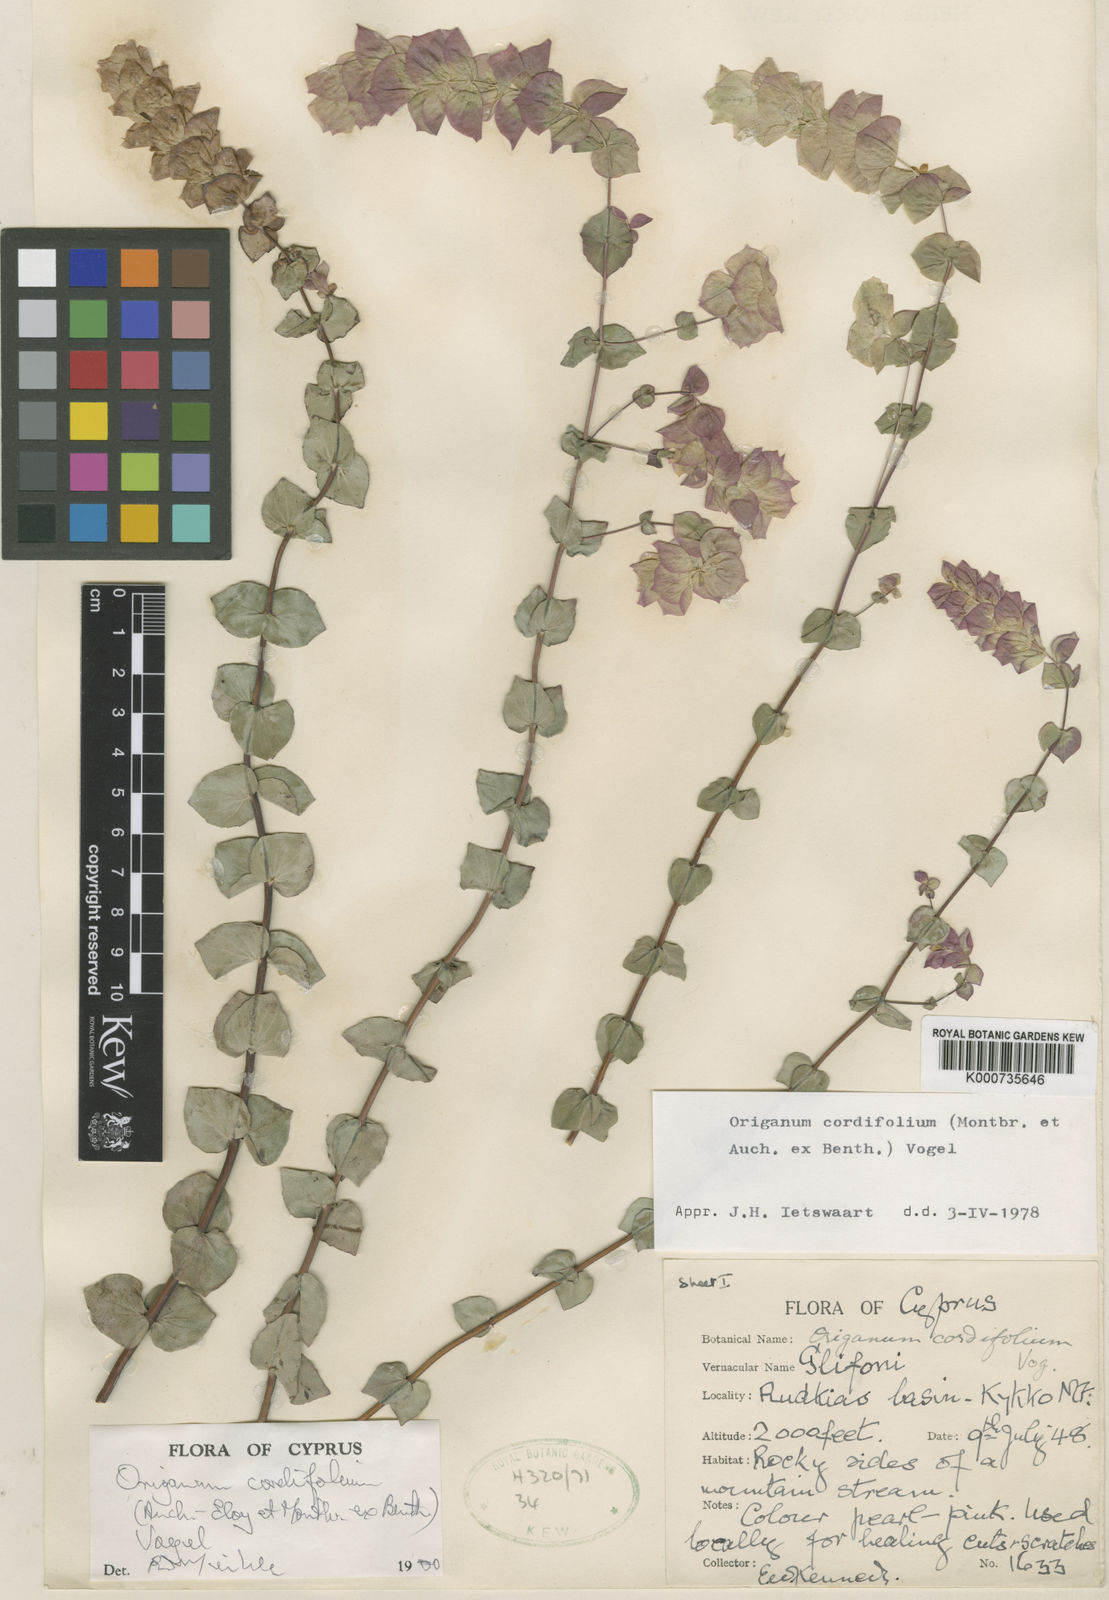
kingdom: Plantae
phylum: Tracheophyta
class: Magnoliopsida
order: Lamiales
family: Lamiaceae
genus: Origanum
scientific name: Origanum cordifolium
